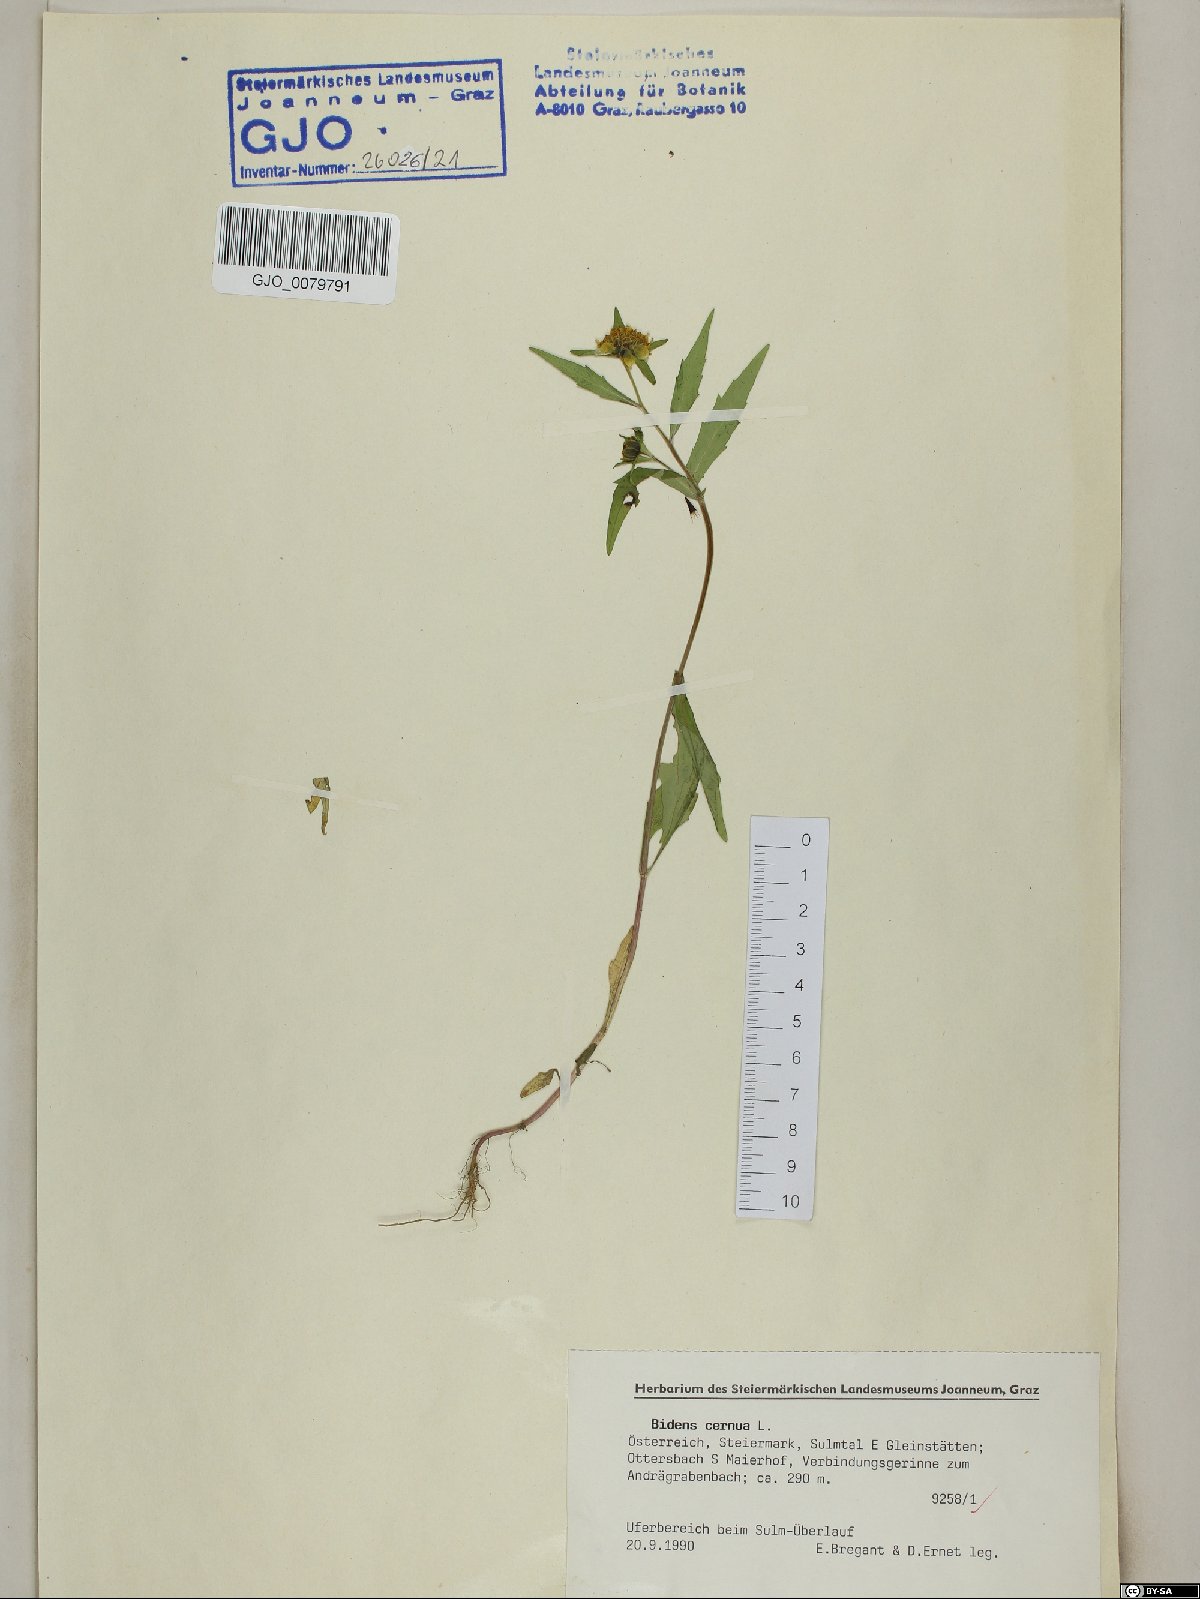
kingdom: Plantae
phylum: Tracheophyta
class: Magnoliopsida
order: Asterales
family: Asteraceae
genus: Bidens
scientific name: Bidens cernua
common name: Nodding bur-marigold
